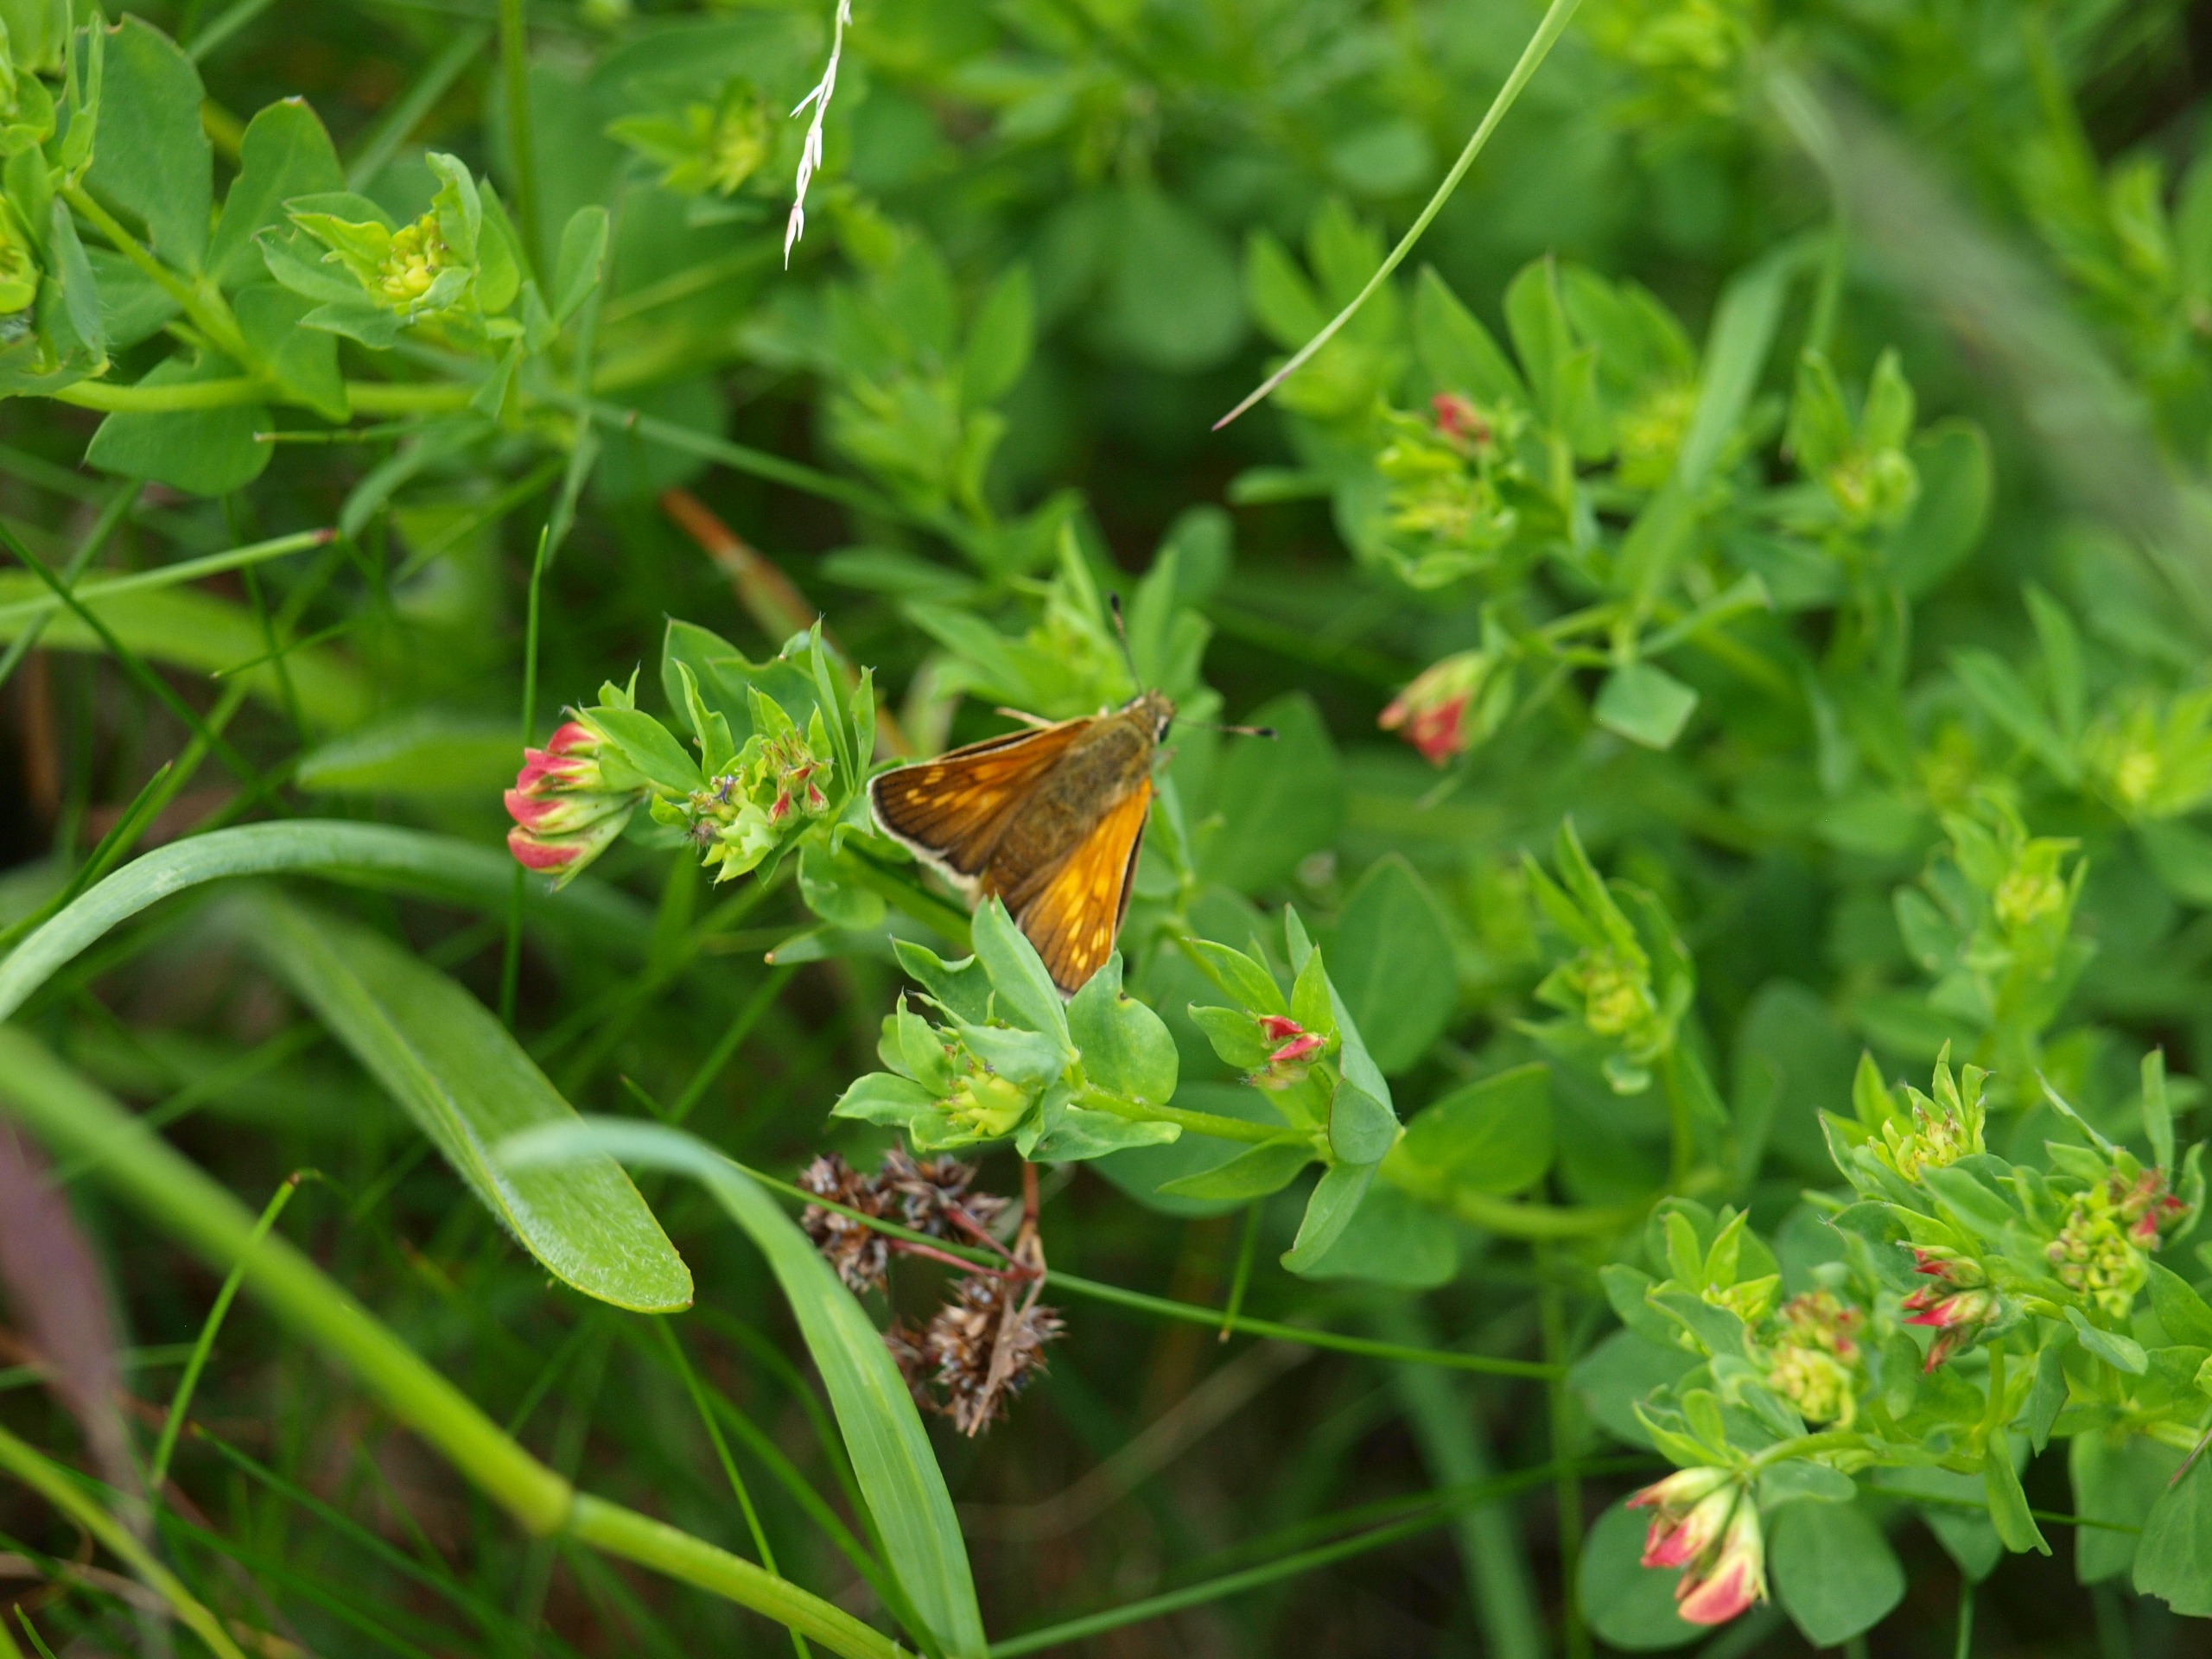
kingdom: Animalia
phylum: Arthropoda
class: Insecta
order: Lepidoptera
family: Hesperiidae
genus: Ochlodes
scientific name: Ochlodes venata
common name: Stor bredpande
